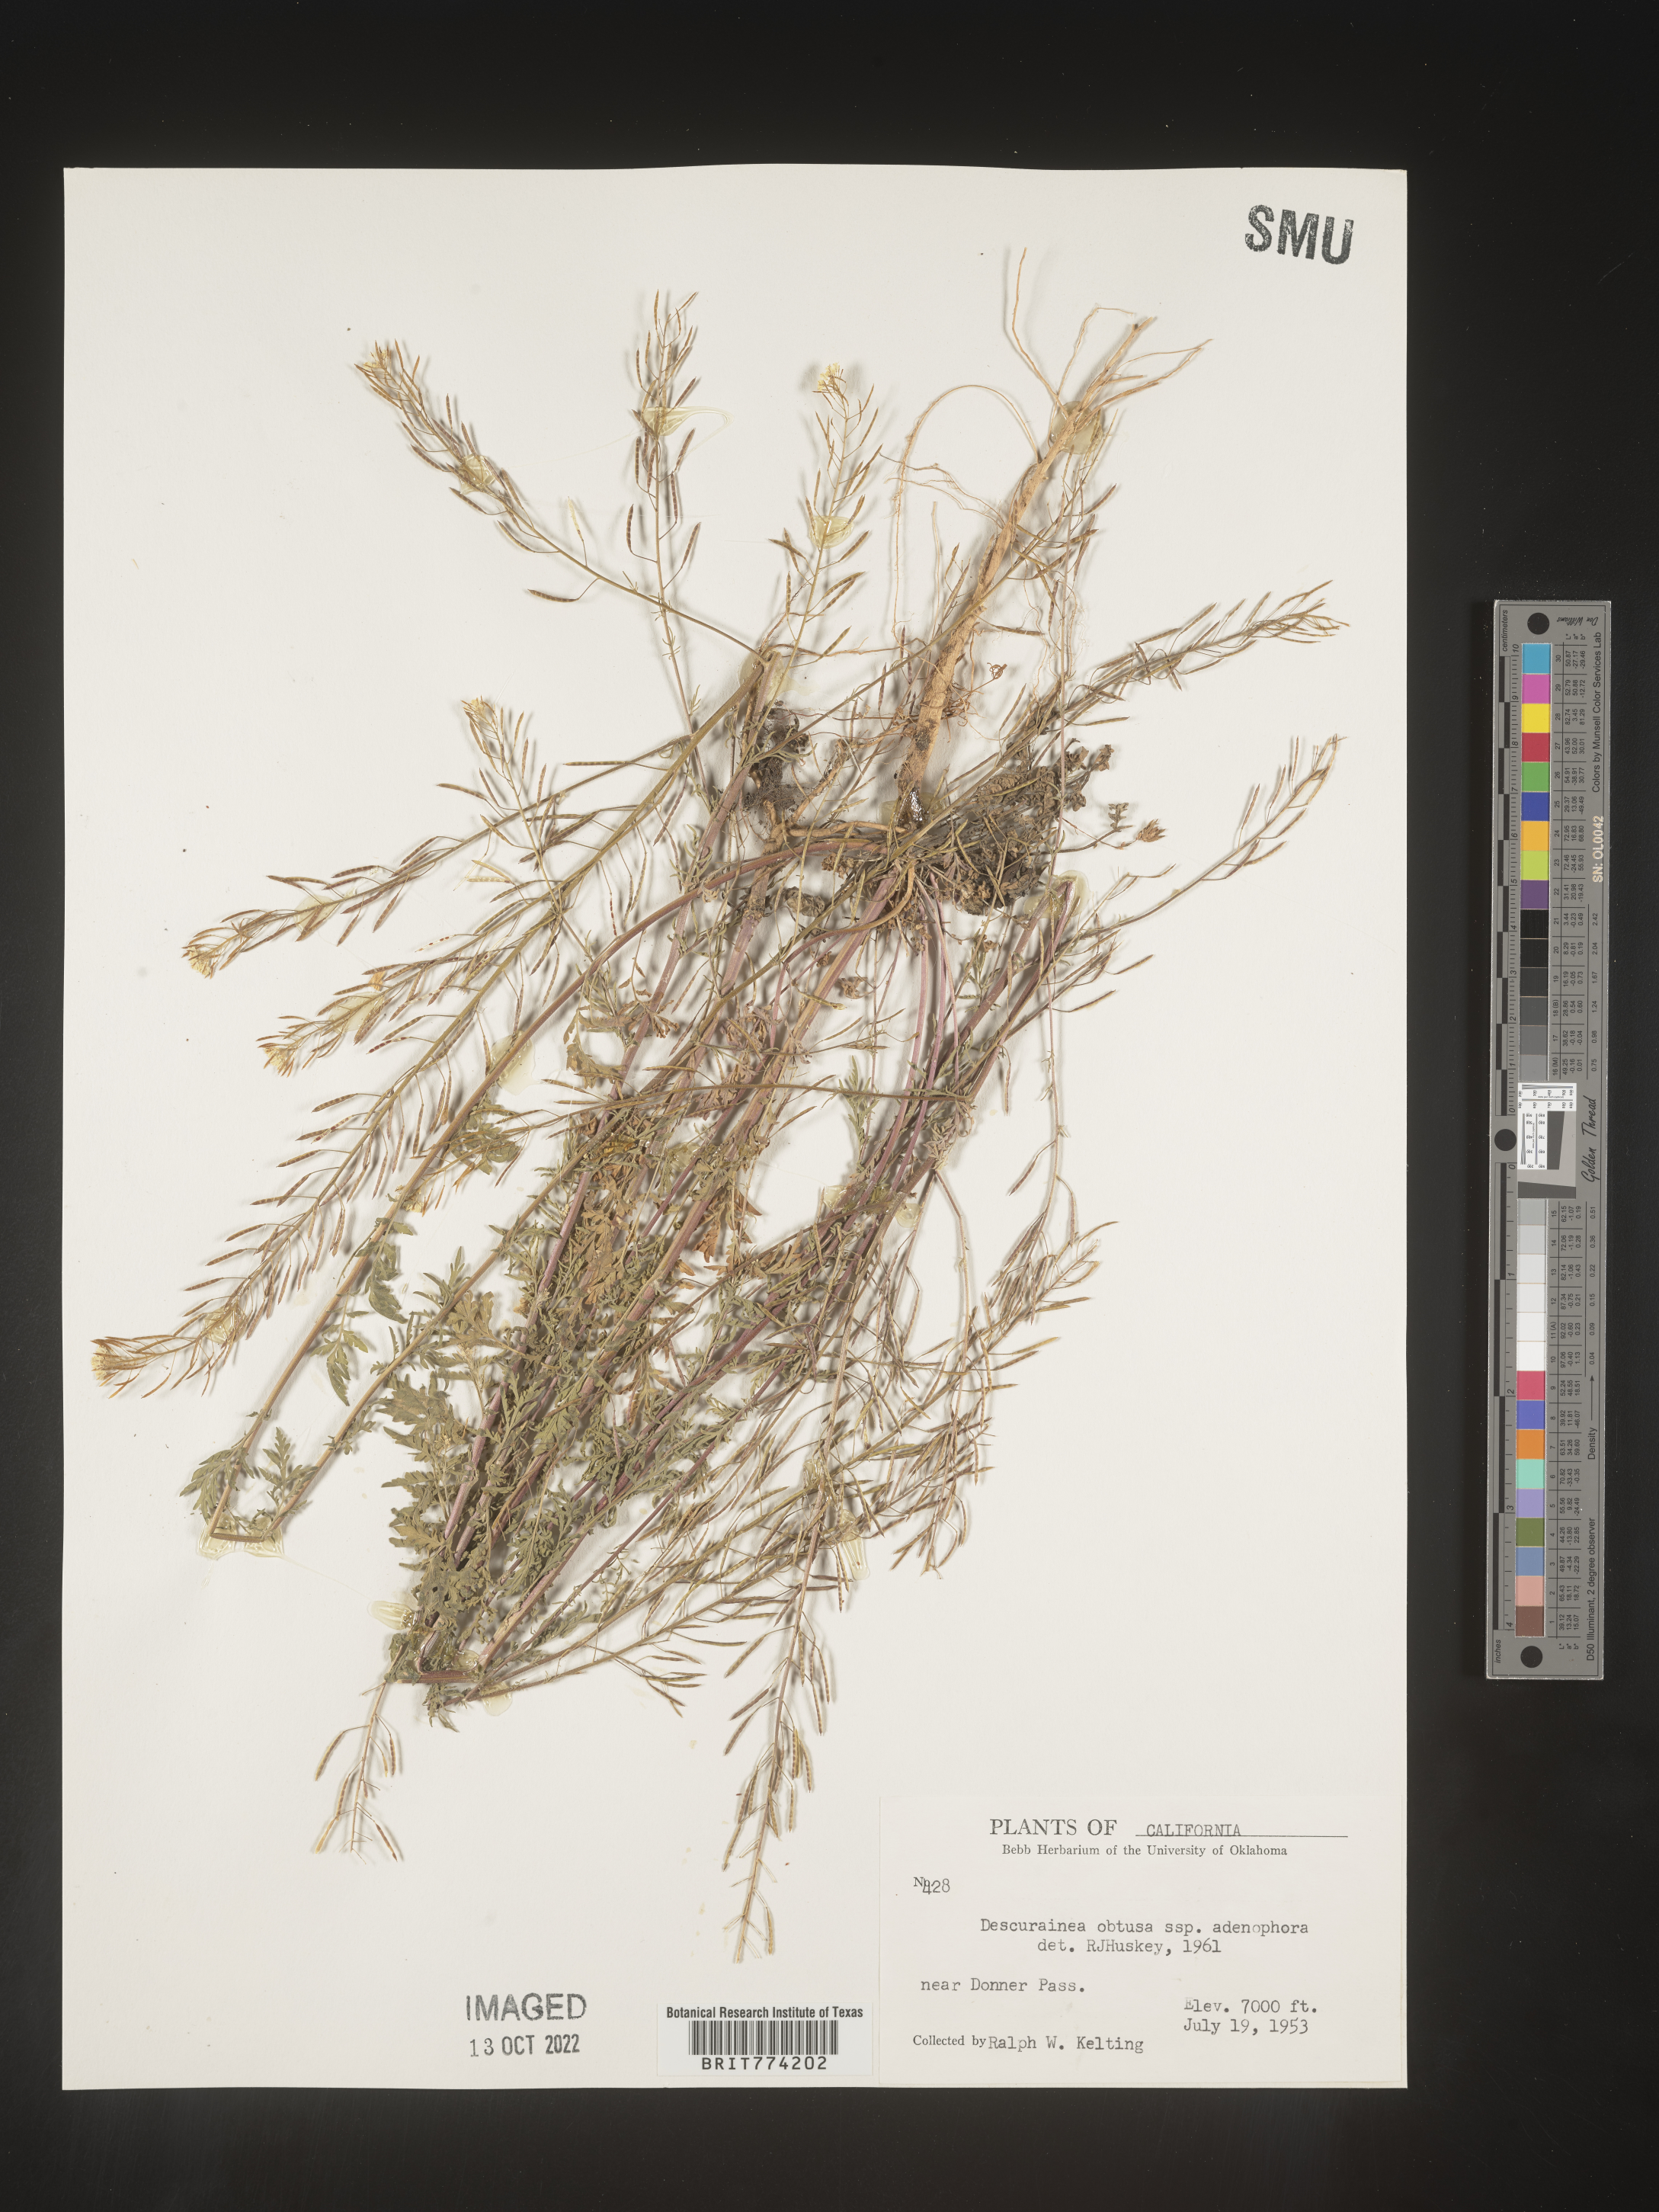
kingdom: Plantae
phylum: Tracheophyta
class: Magnoliopsida
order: Brassicales
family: Brassicaceae
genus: Descurainia
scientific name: Descurainia
